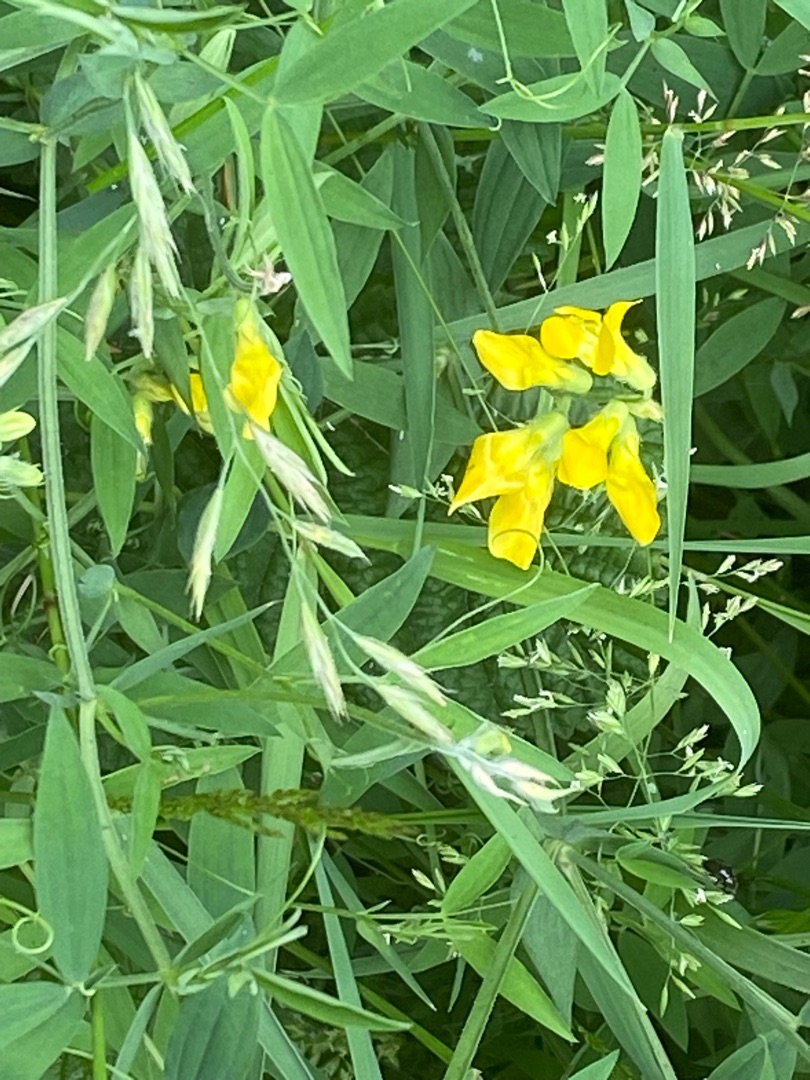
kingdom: Plantae
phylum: Tracheophyta
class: Magnoliopsida
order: Fabales
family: Fabaceae
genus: Lathyrus
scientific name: Lathyrus pratensis
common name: Gul fladbælg
